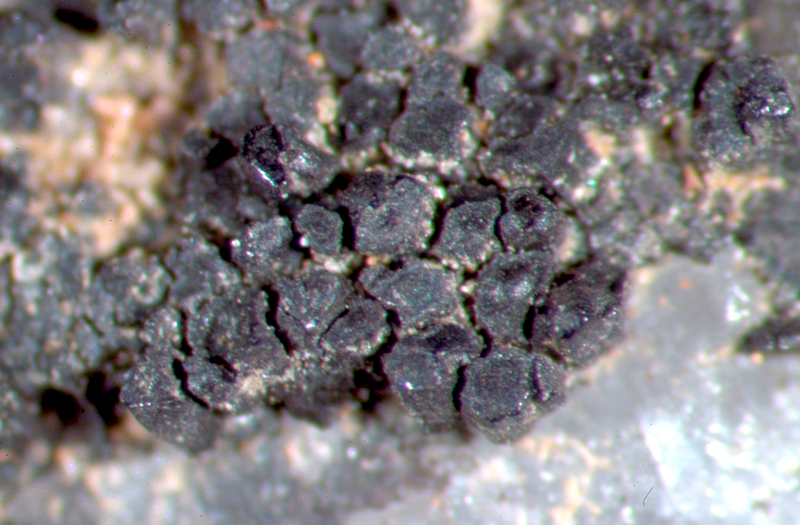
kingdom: Fungi
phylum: Ascomycota
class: Lichinomycetes
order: Lichinales
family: Peltulaceae
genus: Peltula
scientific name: Peltula inversa
